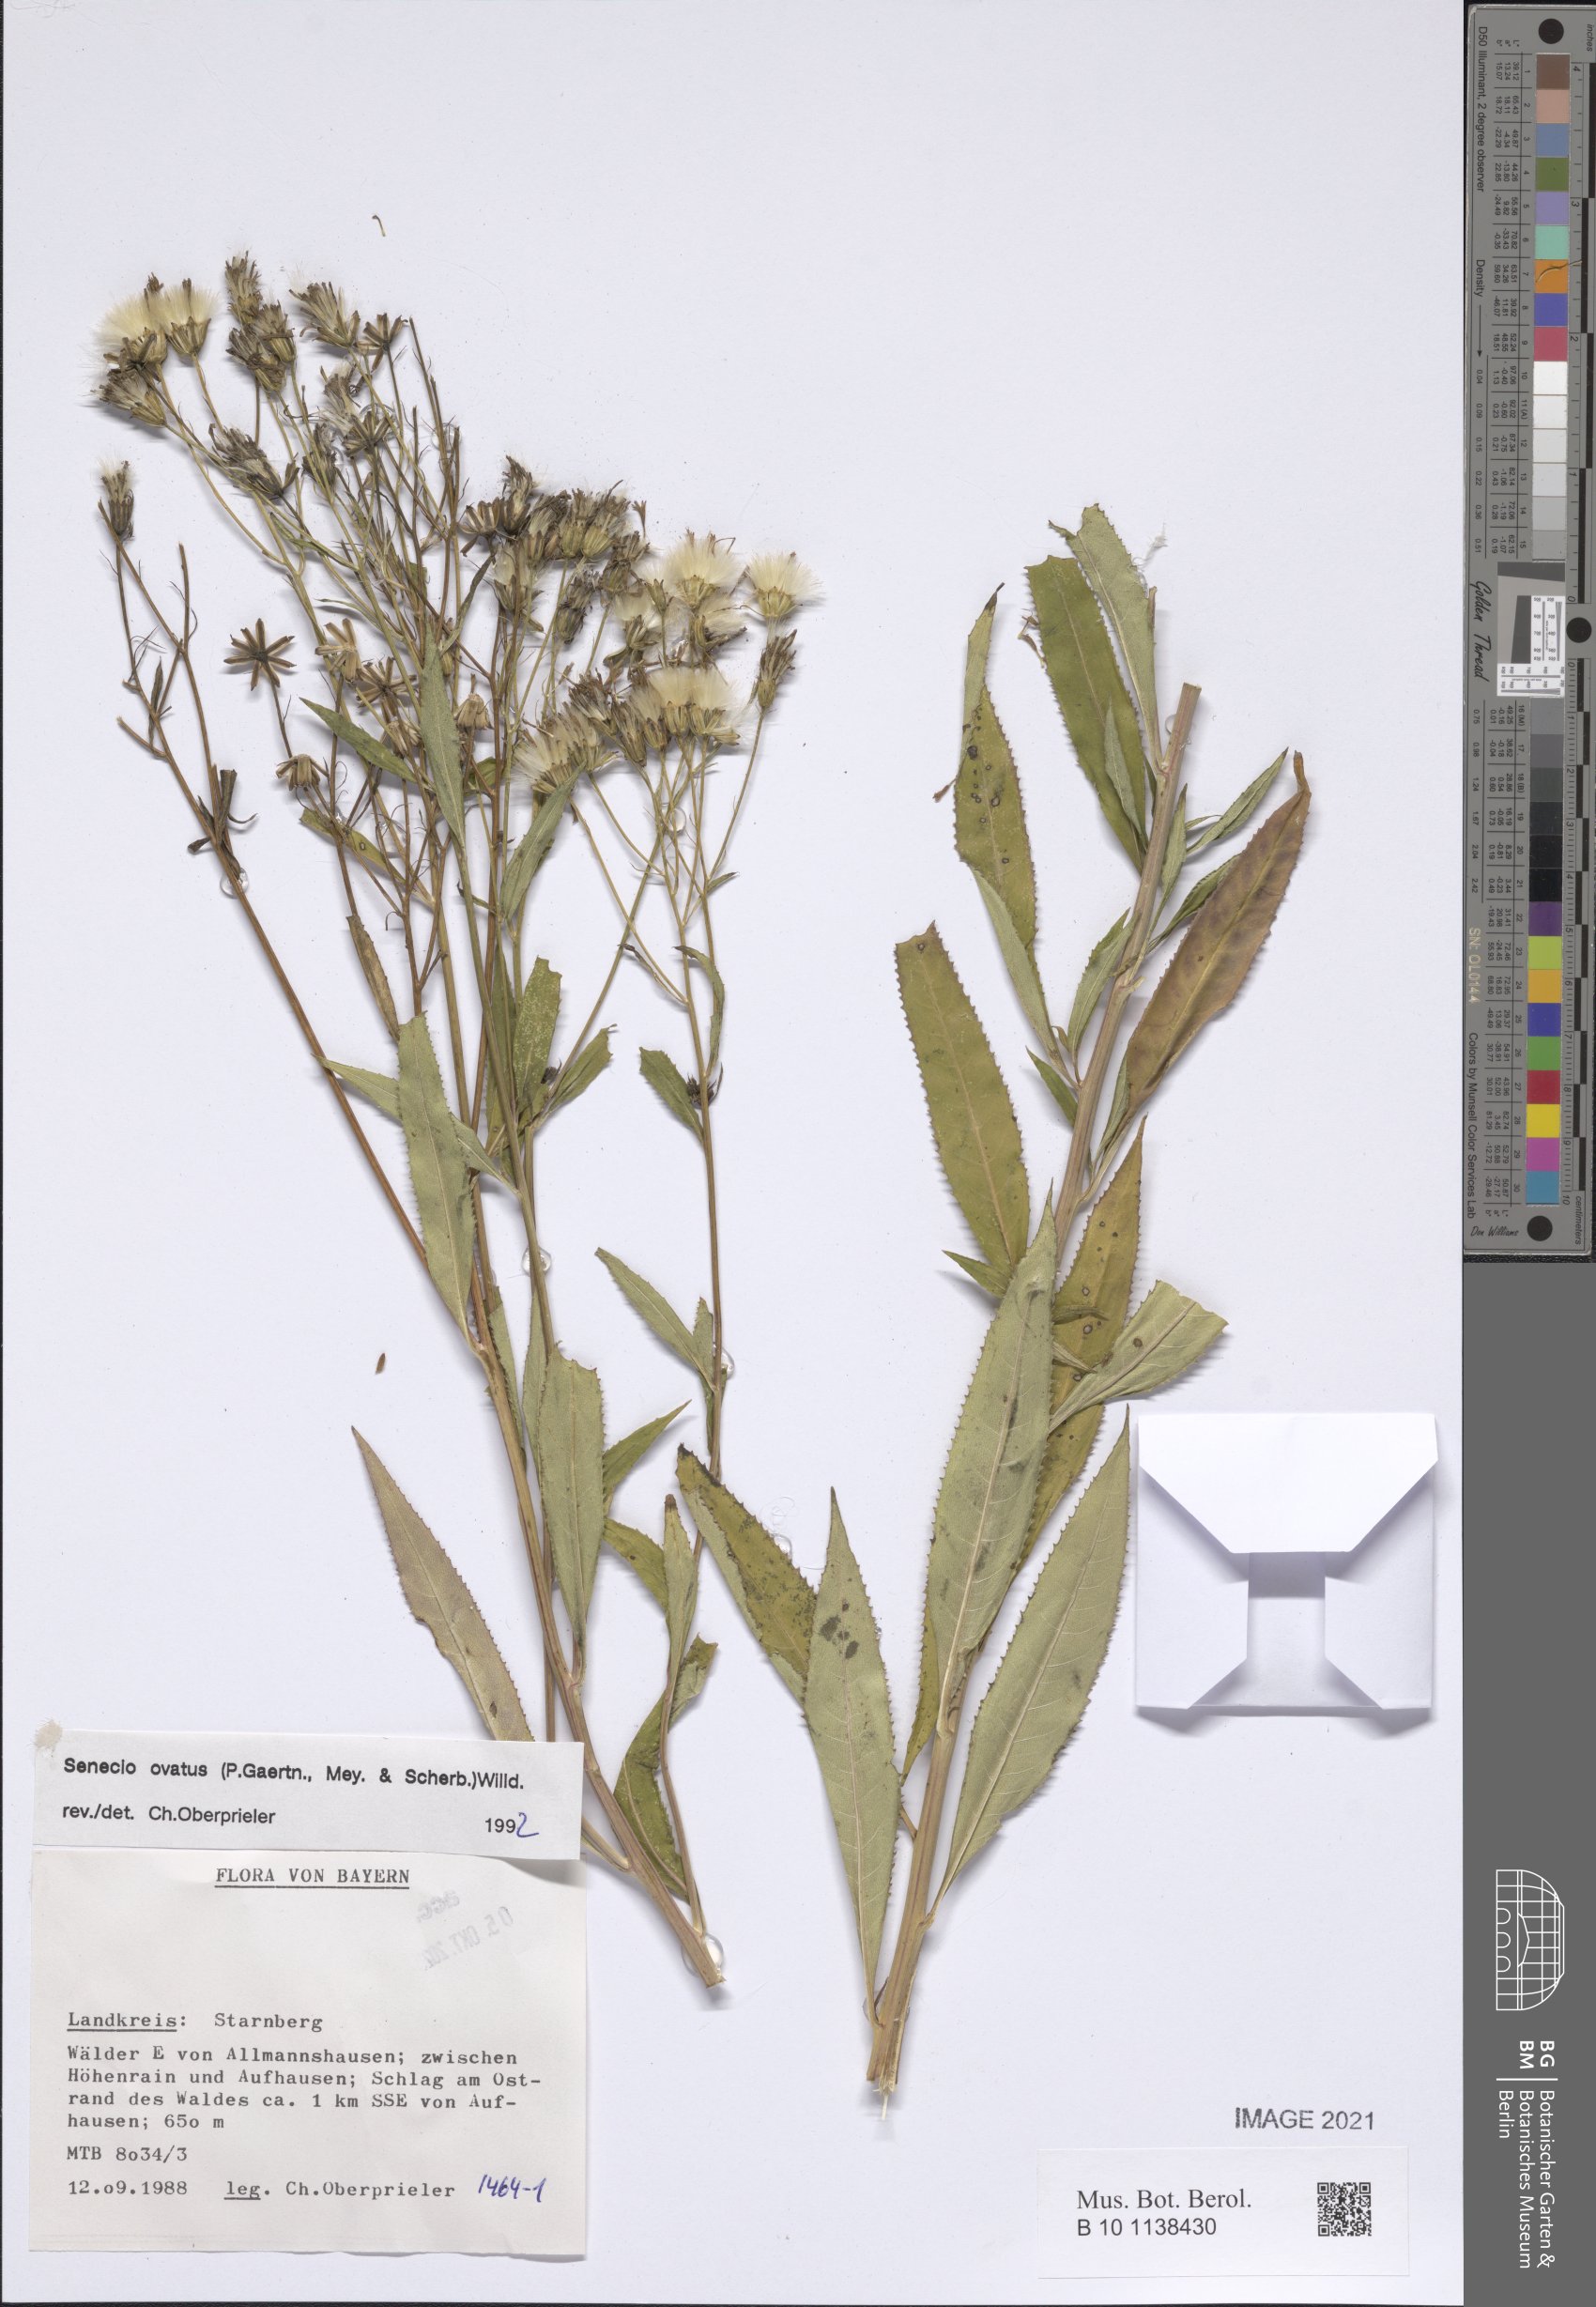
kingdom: Plantae
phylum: Tracheophyta
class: Magnoliopsida
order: Asterales
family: Asteraceae
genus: Senecio
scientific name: Senecio ovatus
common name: Wood ragwort
